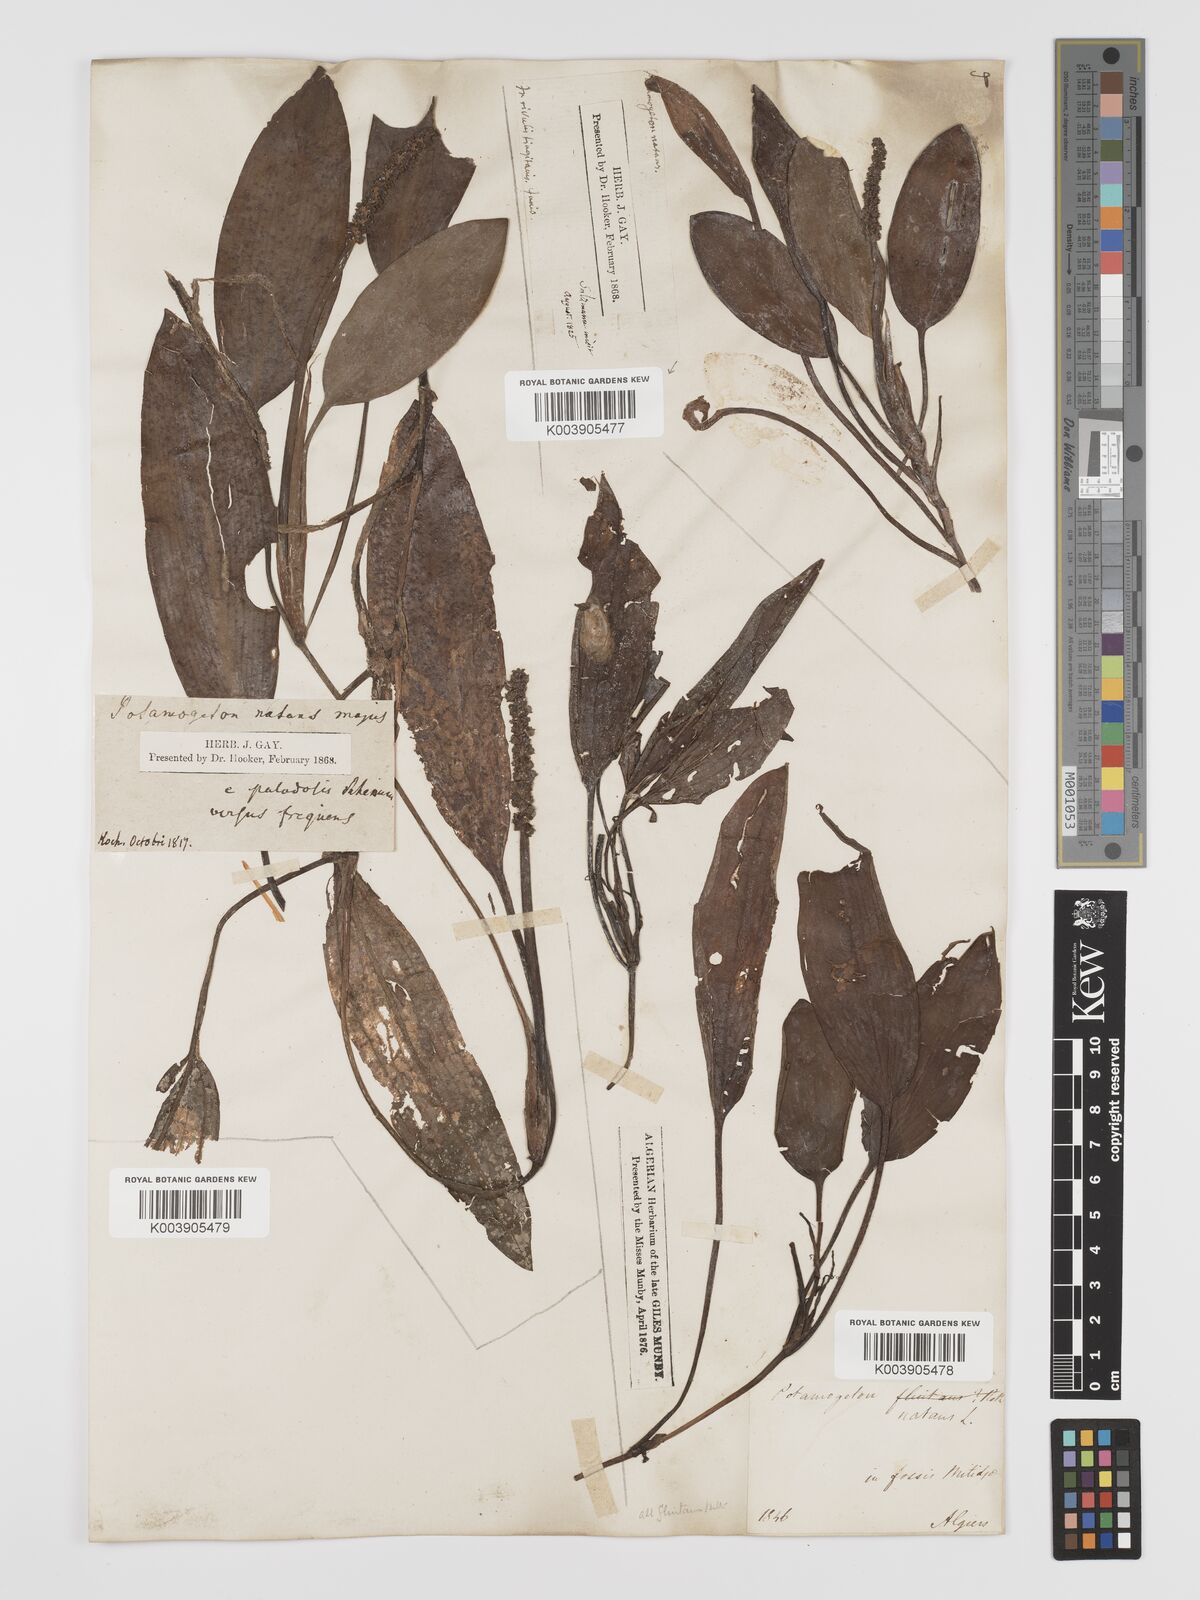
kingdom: Plantae
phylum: Tracheophyta
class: Liliopsida
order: Alismatales
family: Potamogetonaceae
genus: Potamogeton
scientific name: Potamogeton nodosus
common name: Loddon pondweed
